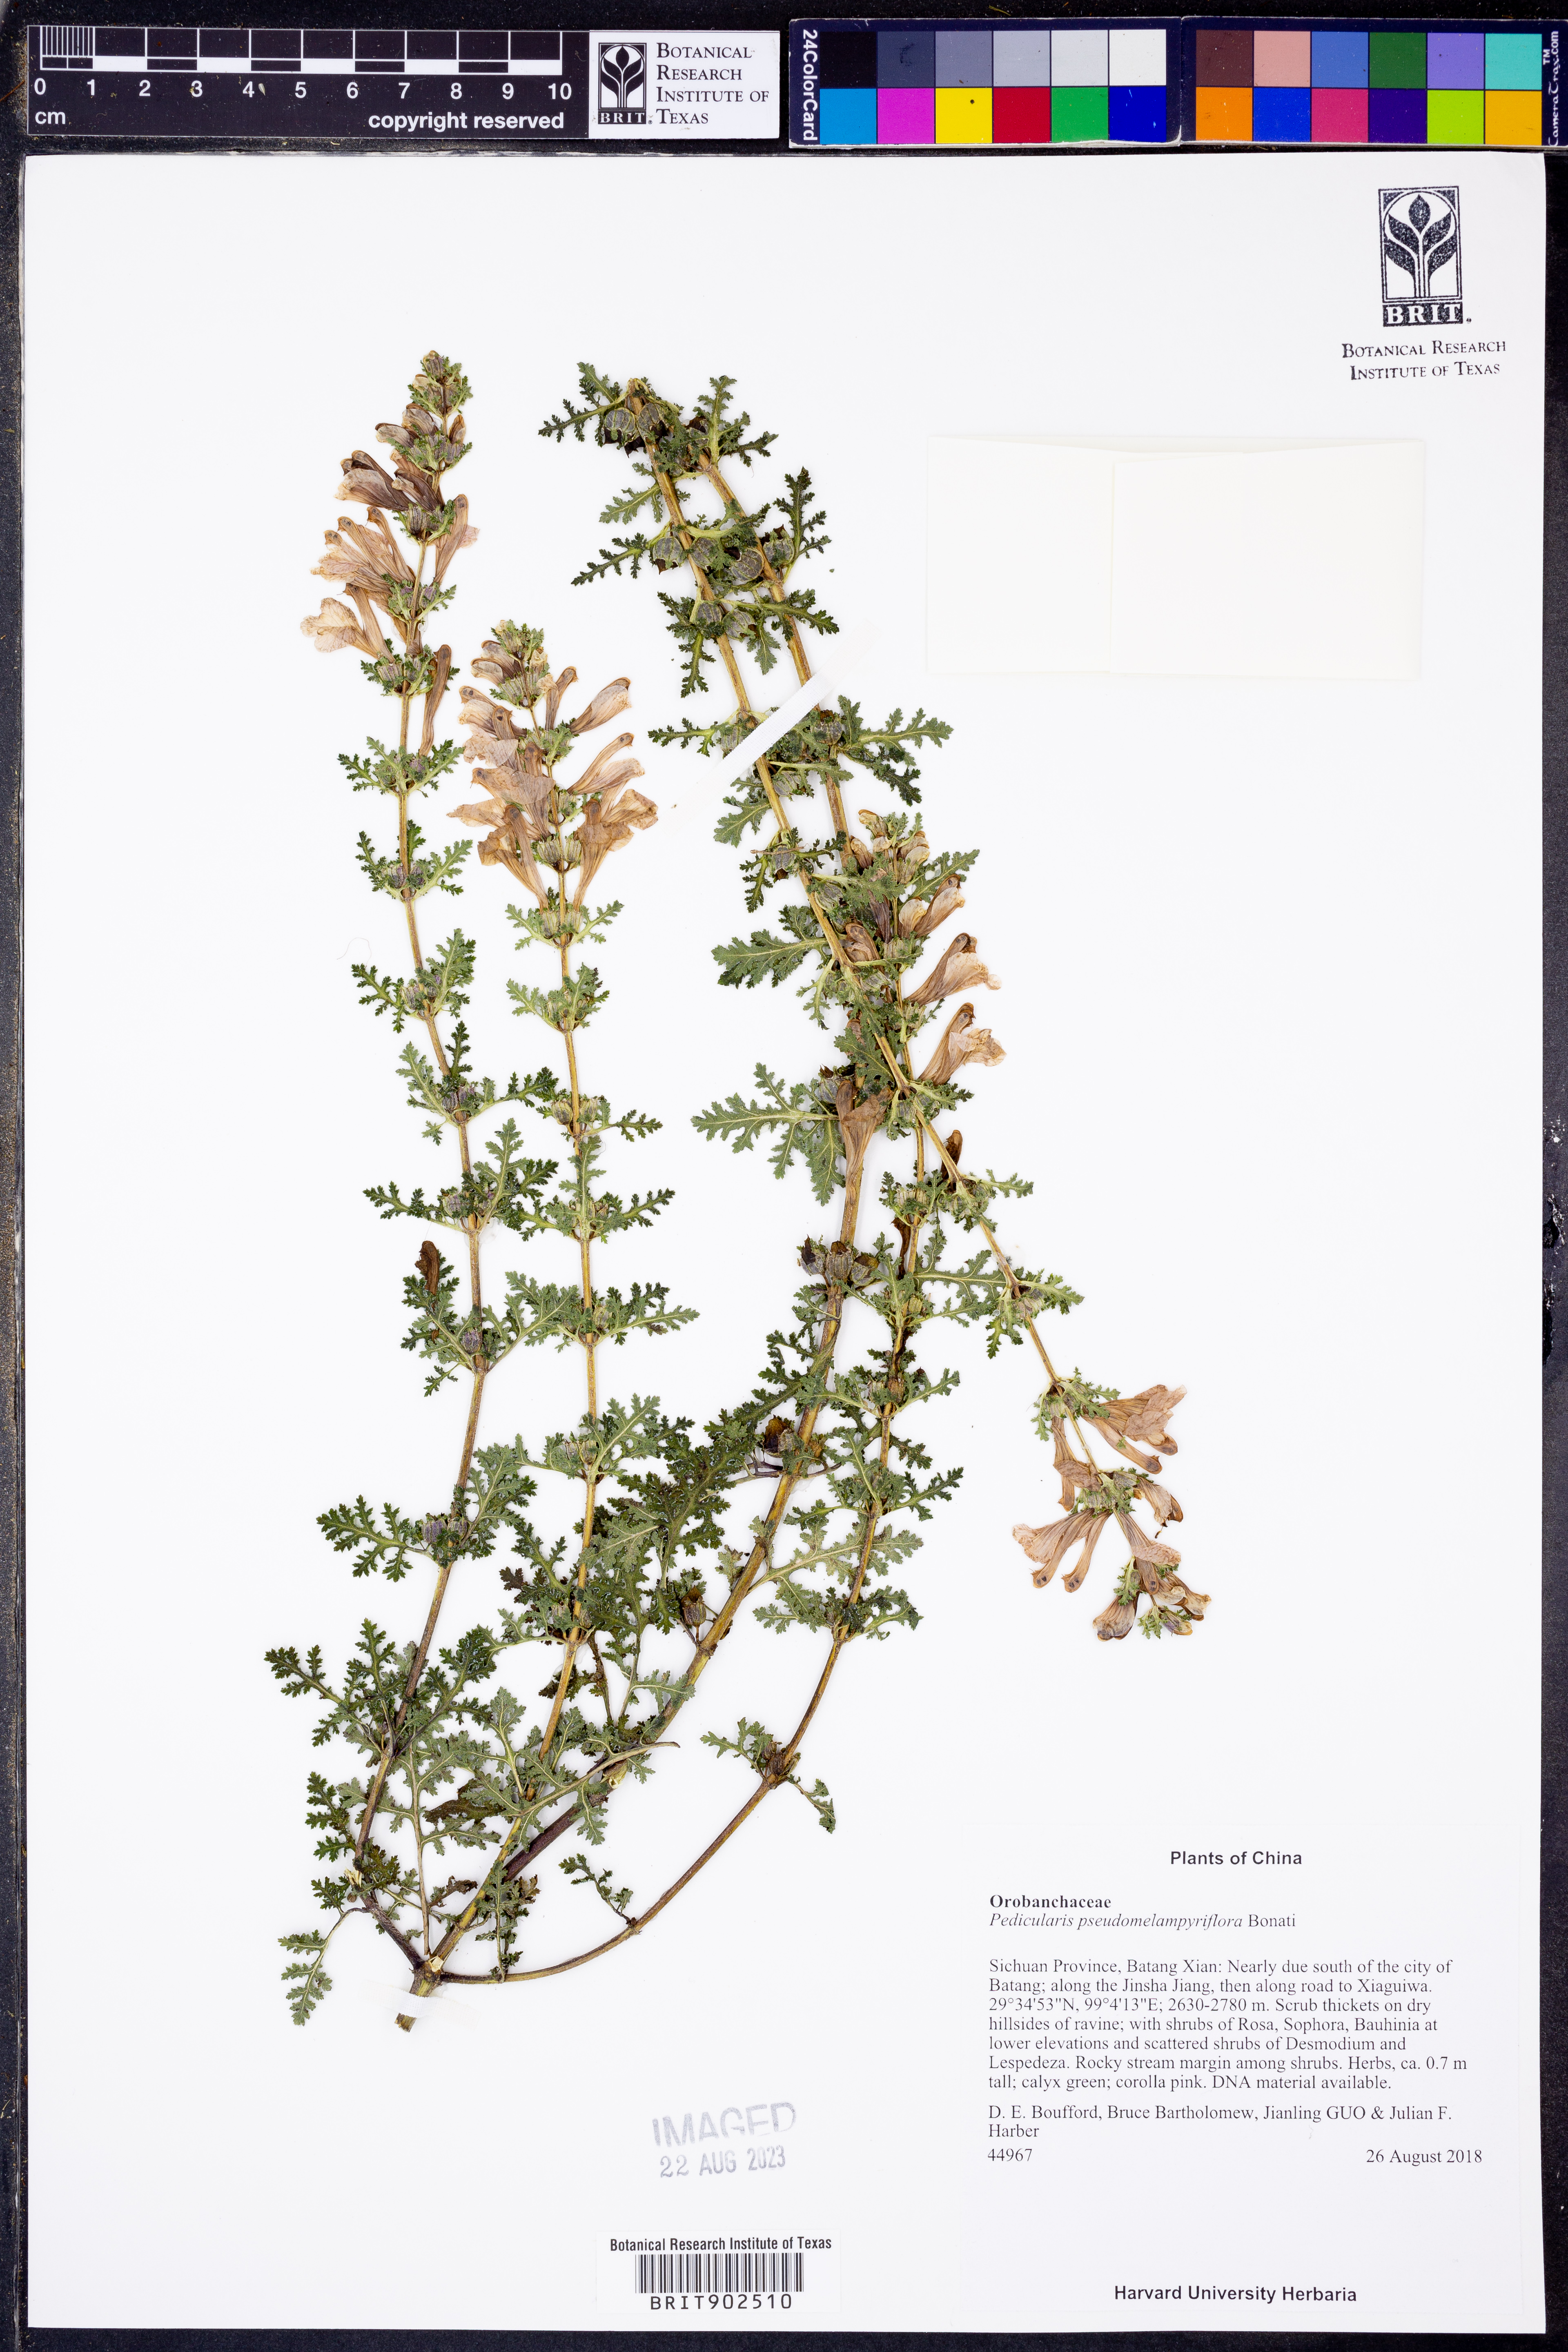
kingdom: Plantae
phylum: Tracheophyta
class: Magnoliopsida
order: Lamiales
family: Orobanchaceae
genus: Pedicularis
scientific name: Pedicularis
